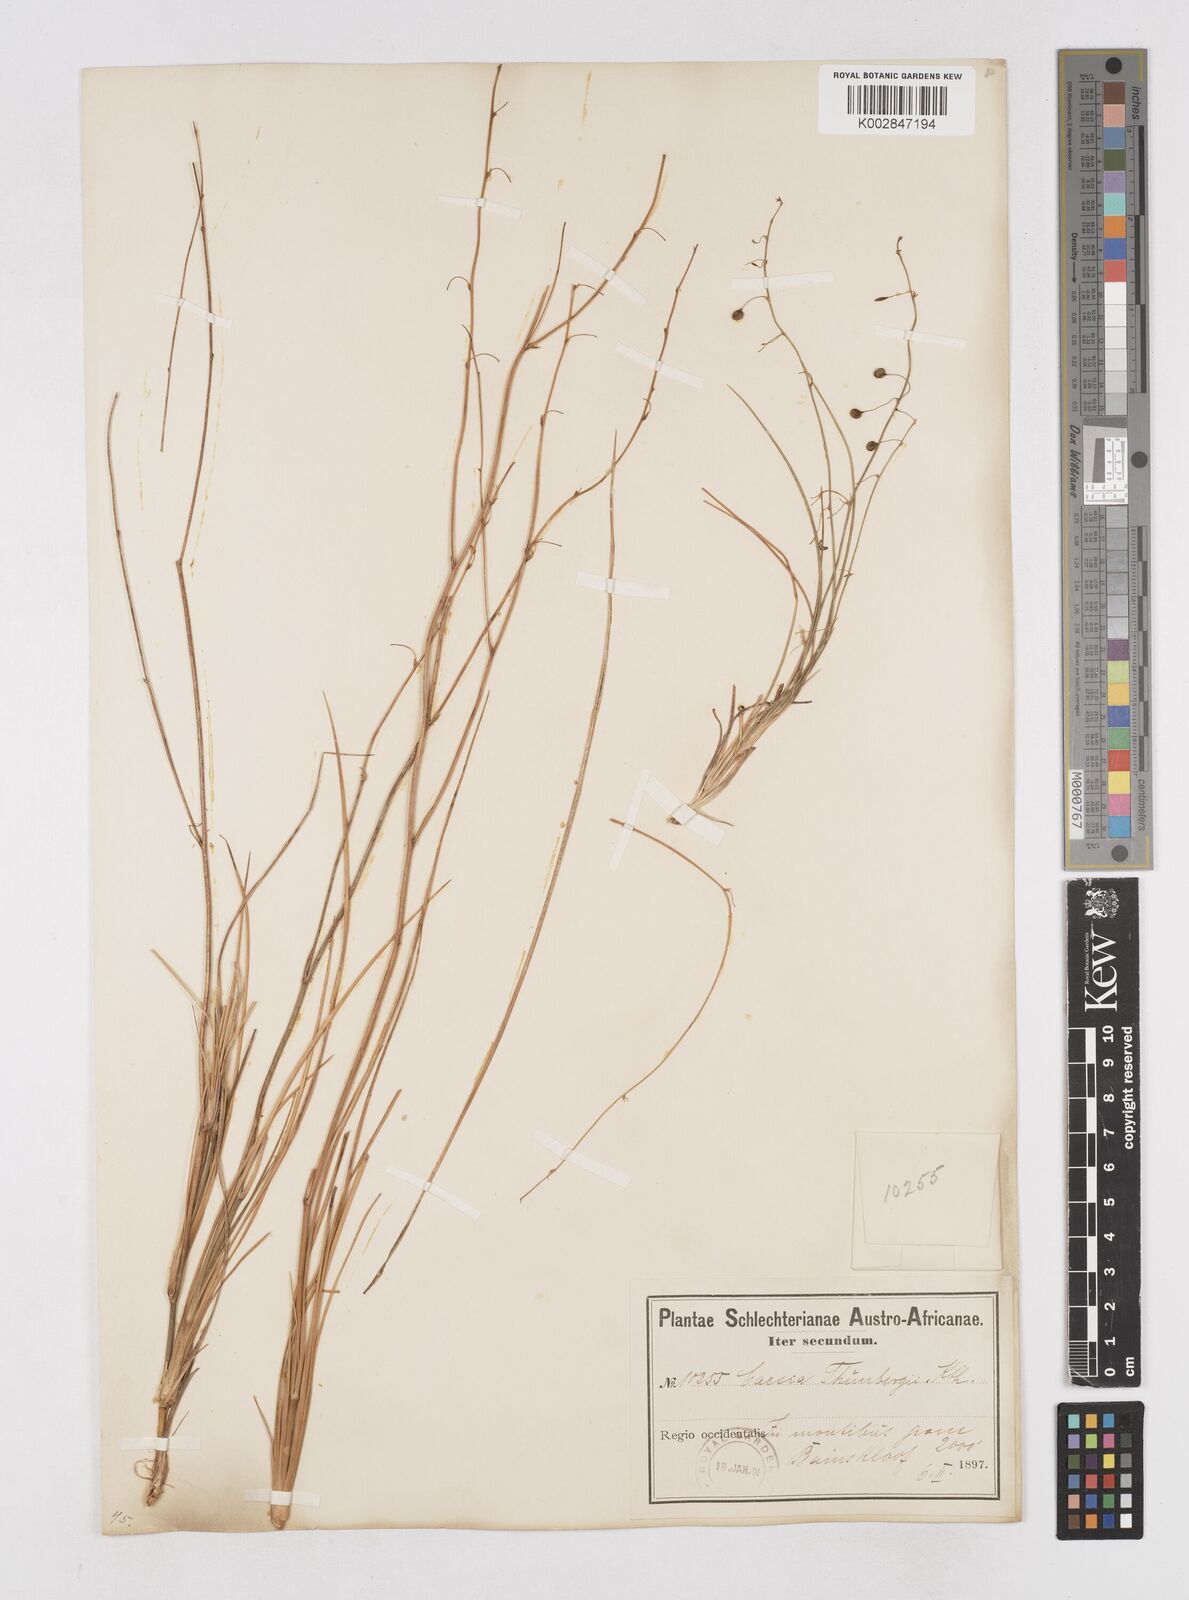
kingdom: Plantae
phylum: Tracheophyta
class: Liliopsida
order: Asparagales
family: Asphodelaceae
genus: Caesia
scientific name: Caesia contorta
